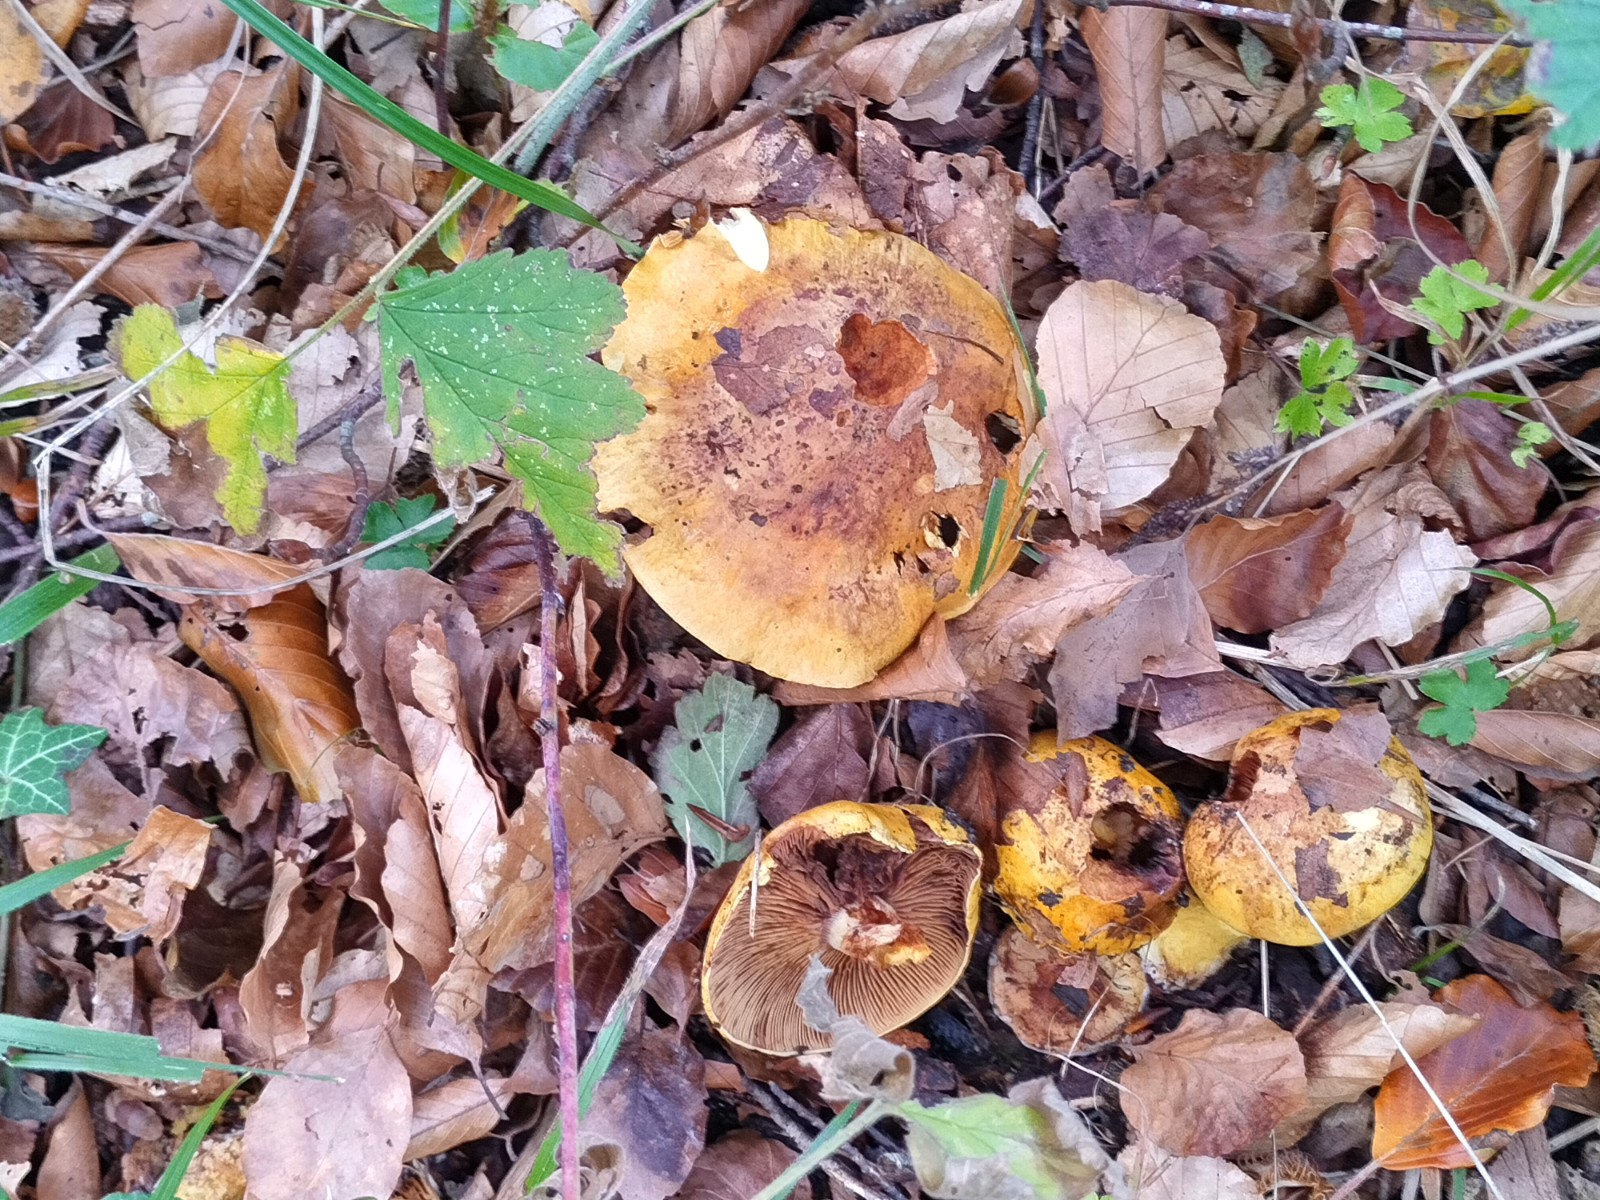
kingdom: Fungi
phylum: Basidiomycota
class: Agaricomycetes
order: Agaricales
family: Cortinariaceae
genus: Calonarius
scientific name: Calonarius
